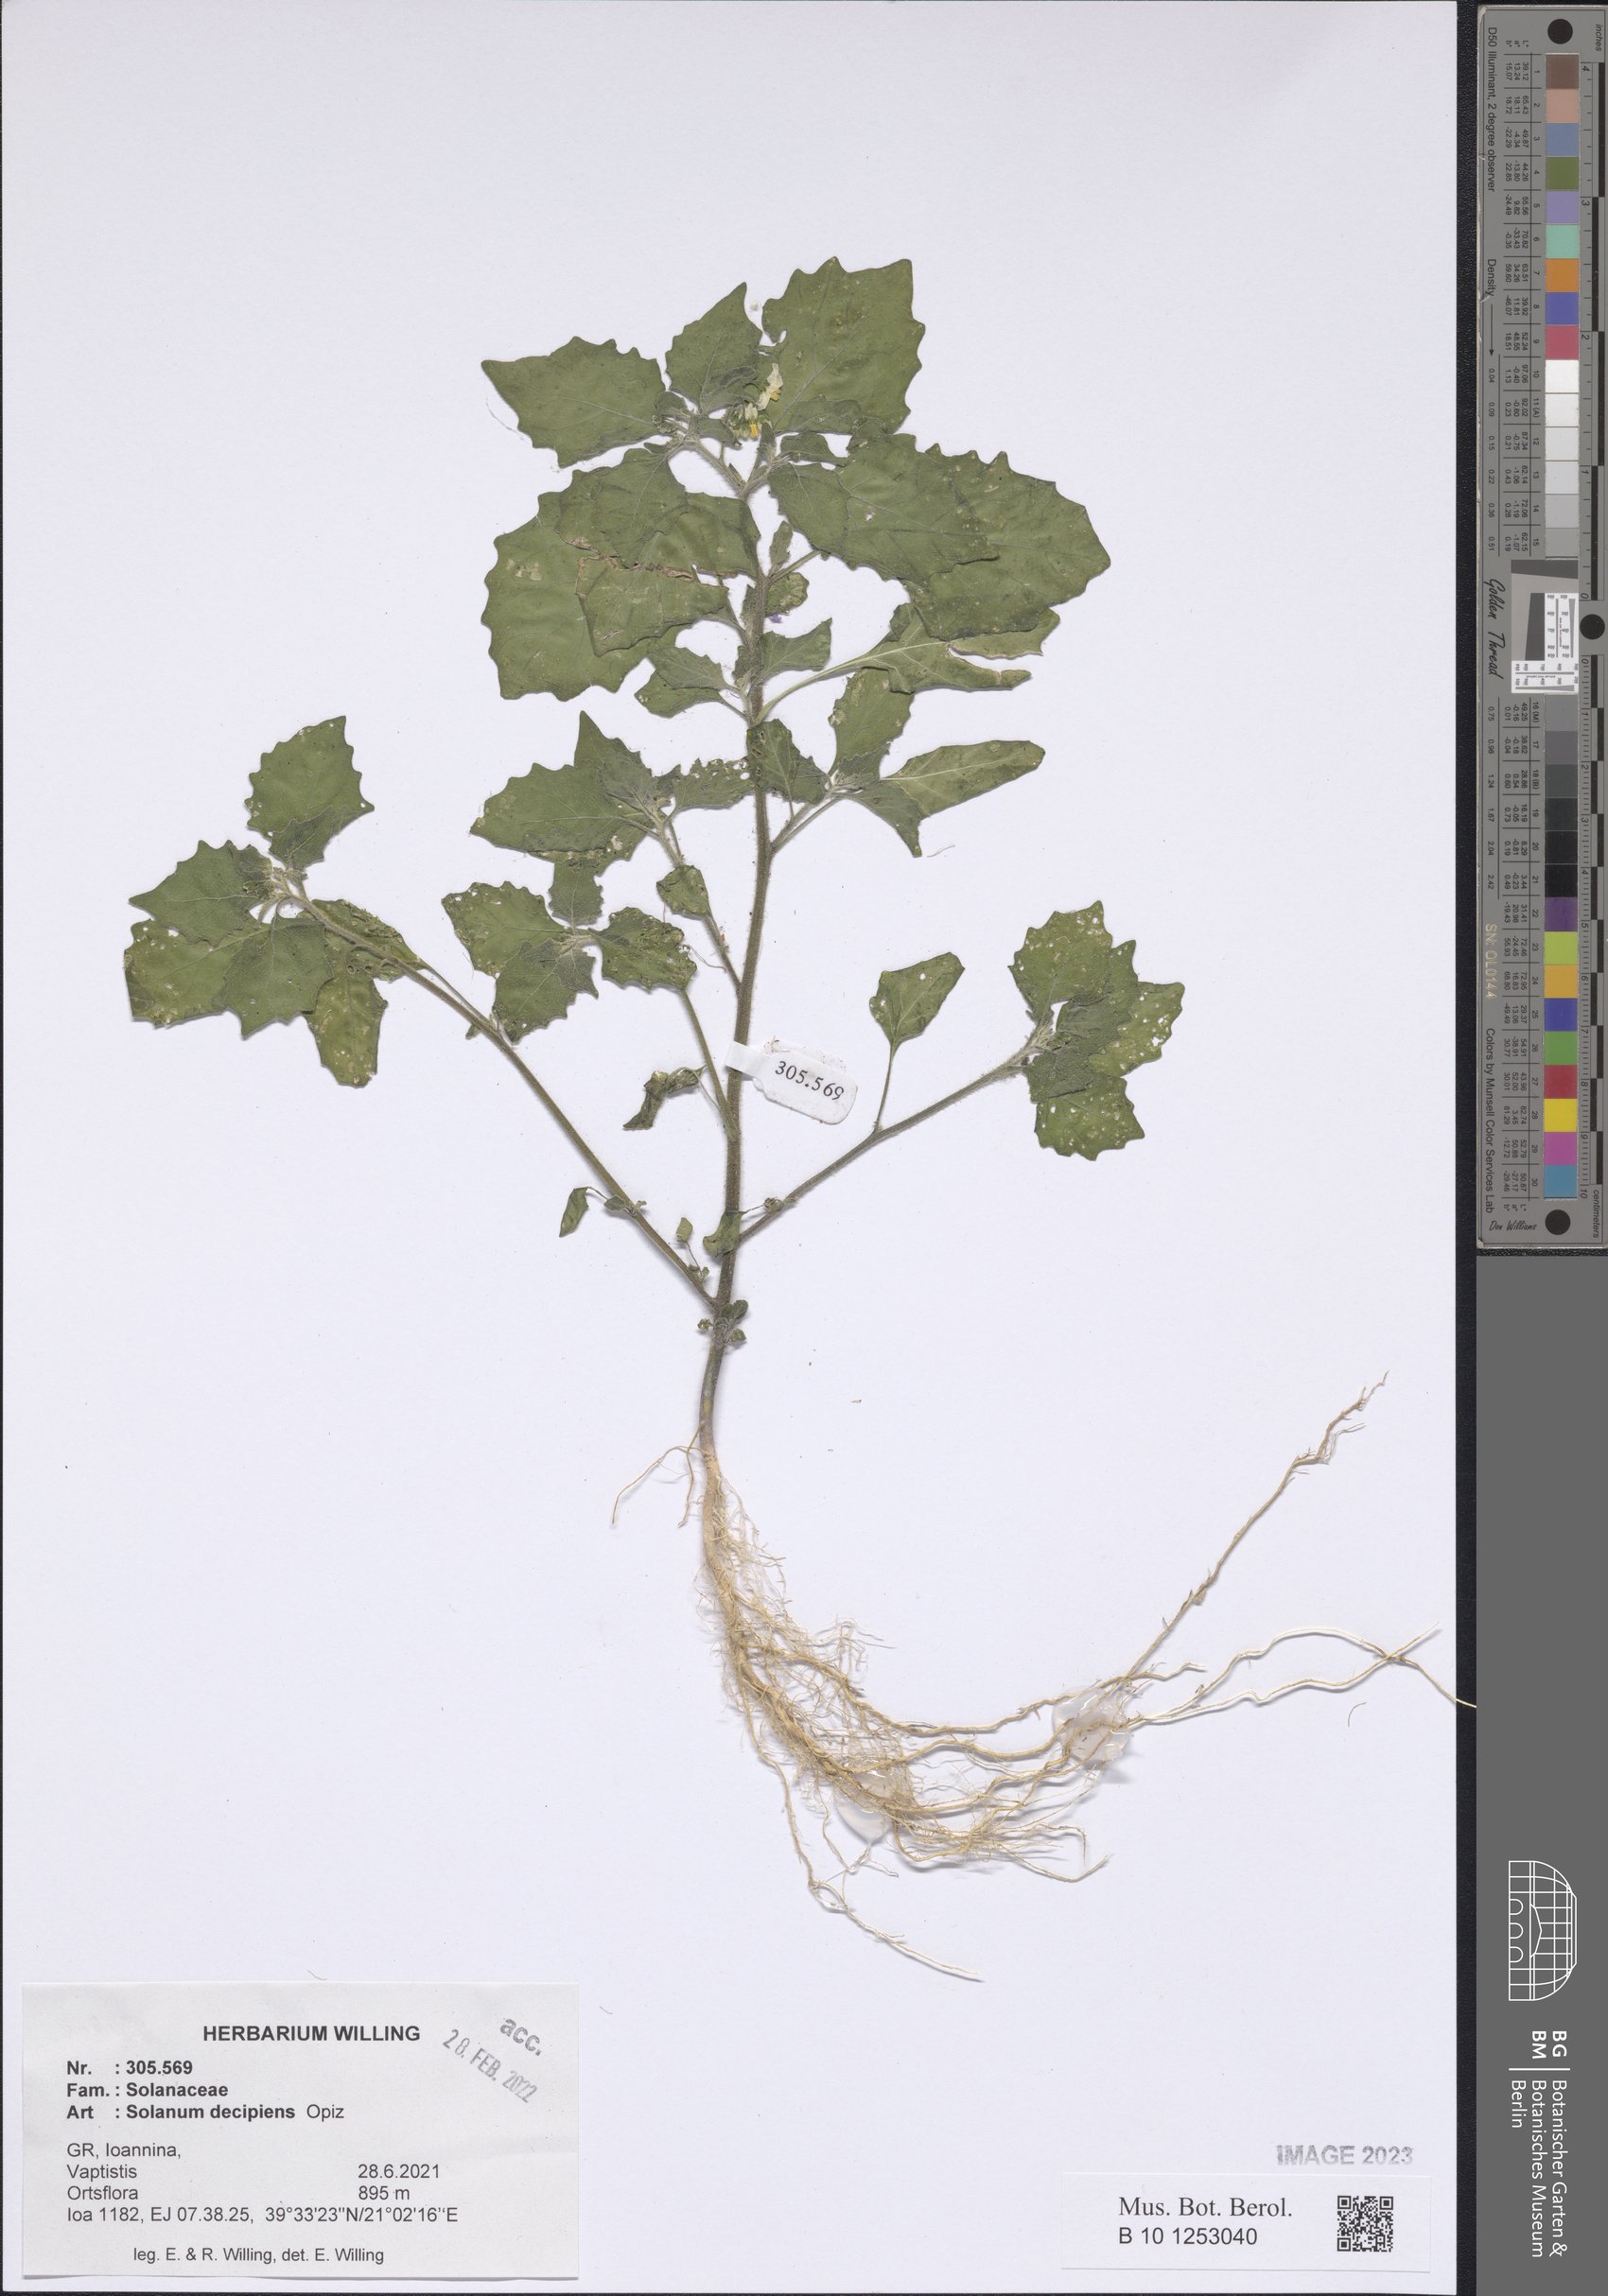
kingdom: Plantae
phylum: Tracheophyta
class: Magnoliopsida
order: Solanales
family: Solanaceae
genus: Solanum
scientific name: Solanum decipiens
